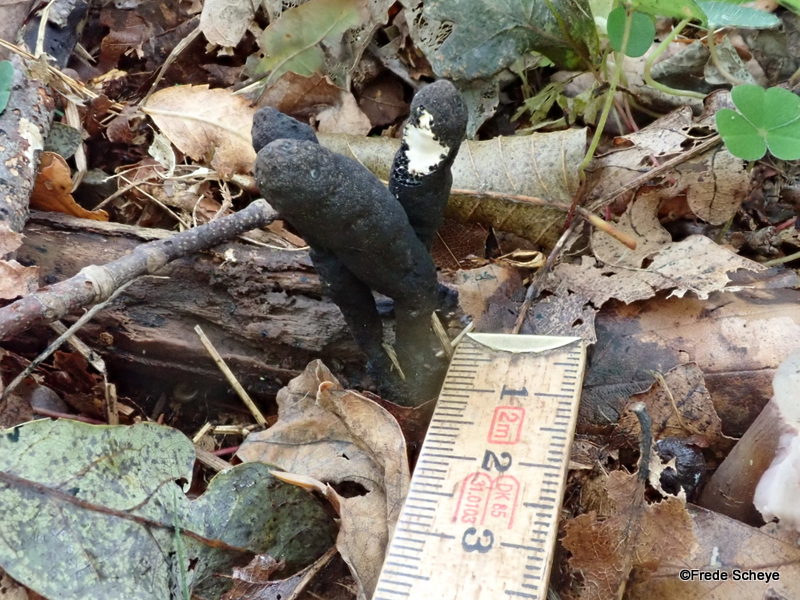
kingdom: Fungi
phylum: Ascomycota
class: Sordariomycetes
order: Xylariales
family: Xylariaceae
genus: Xylaria
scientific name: Xylaria polymorpha
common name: kølle-stødsvamp
